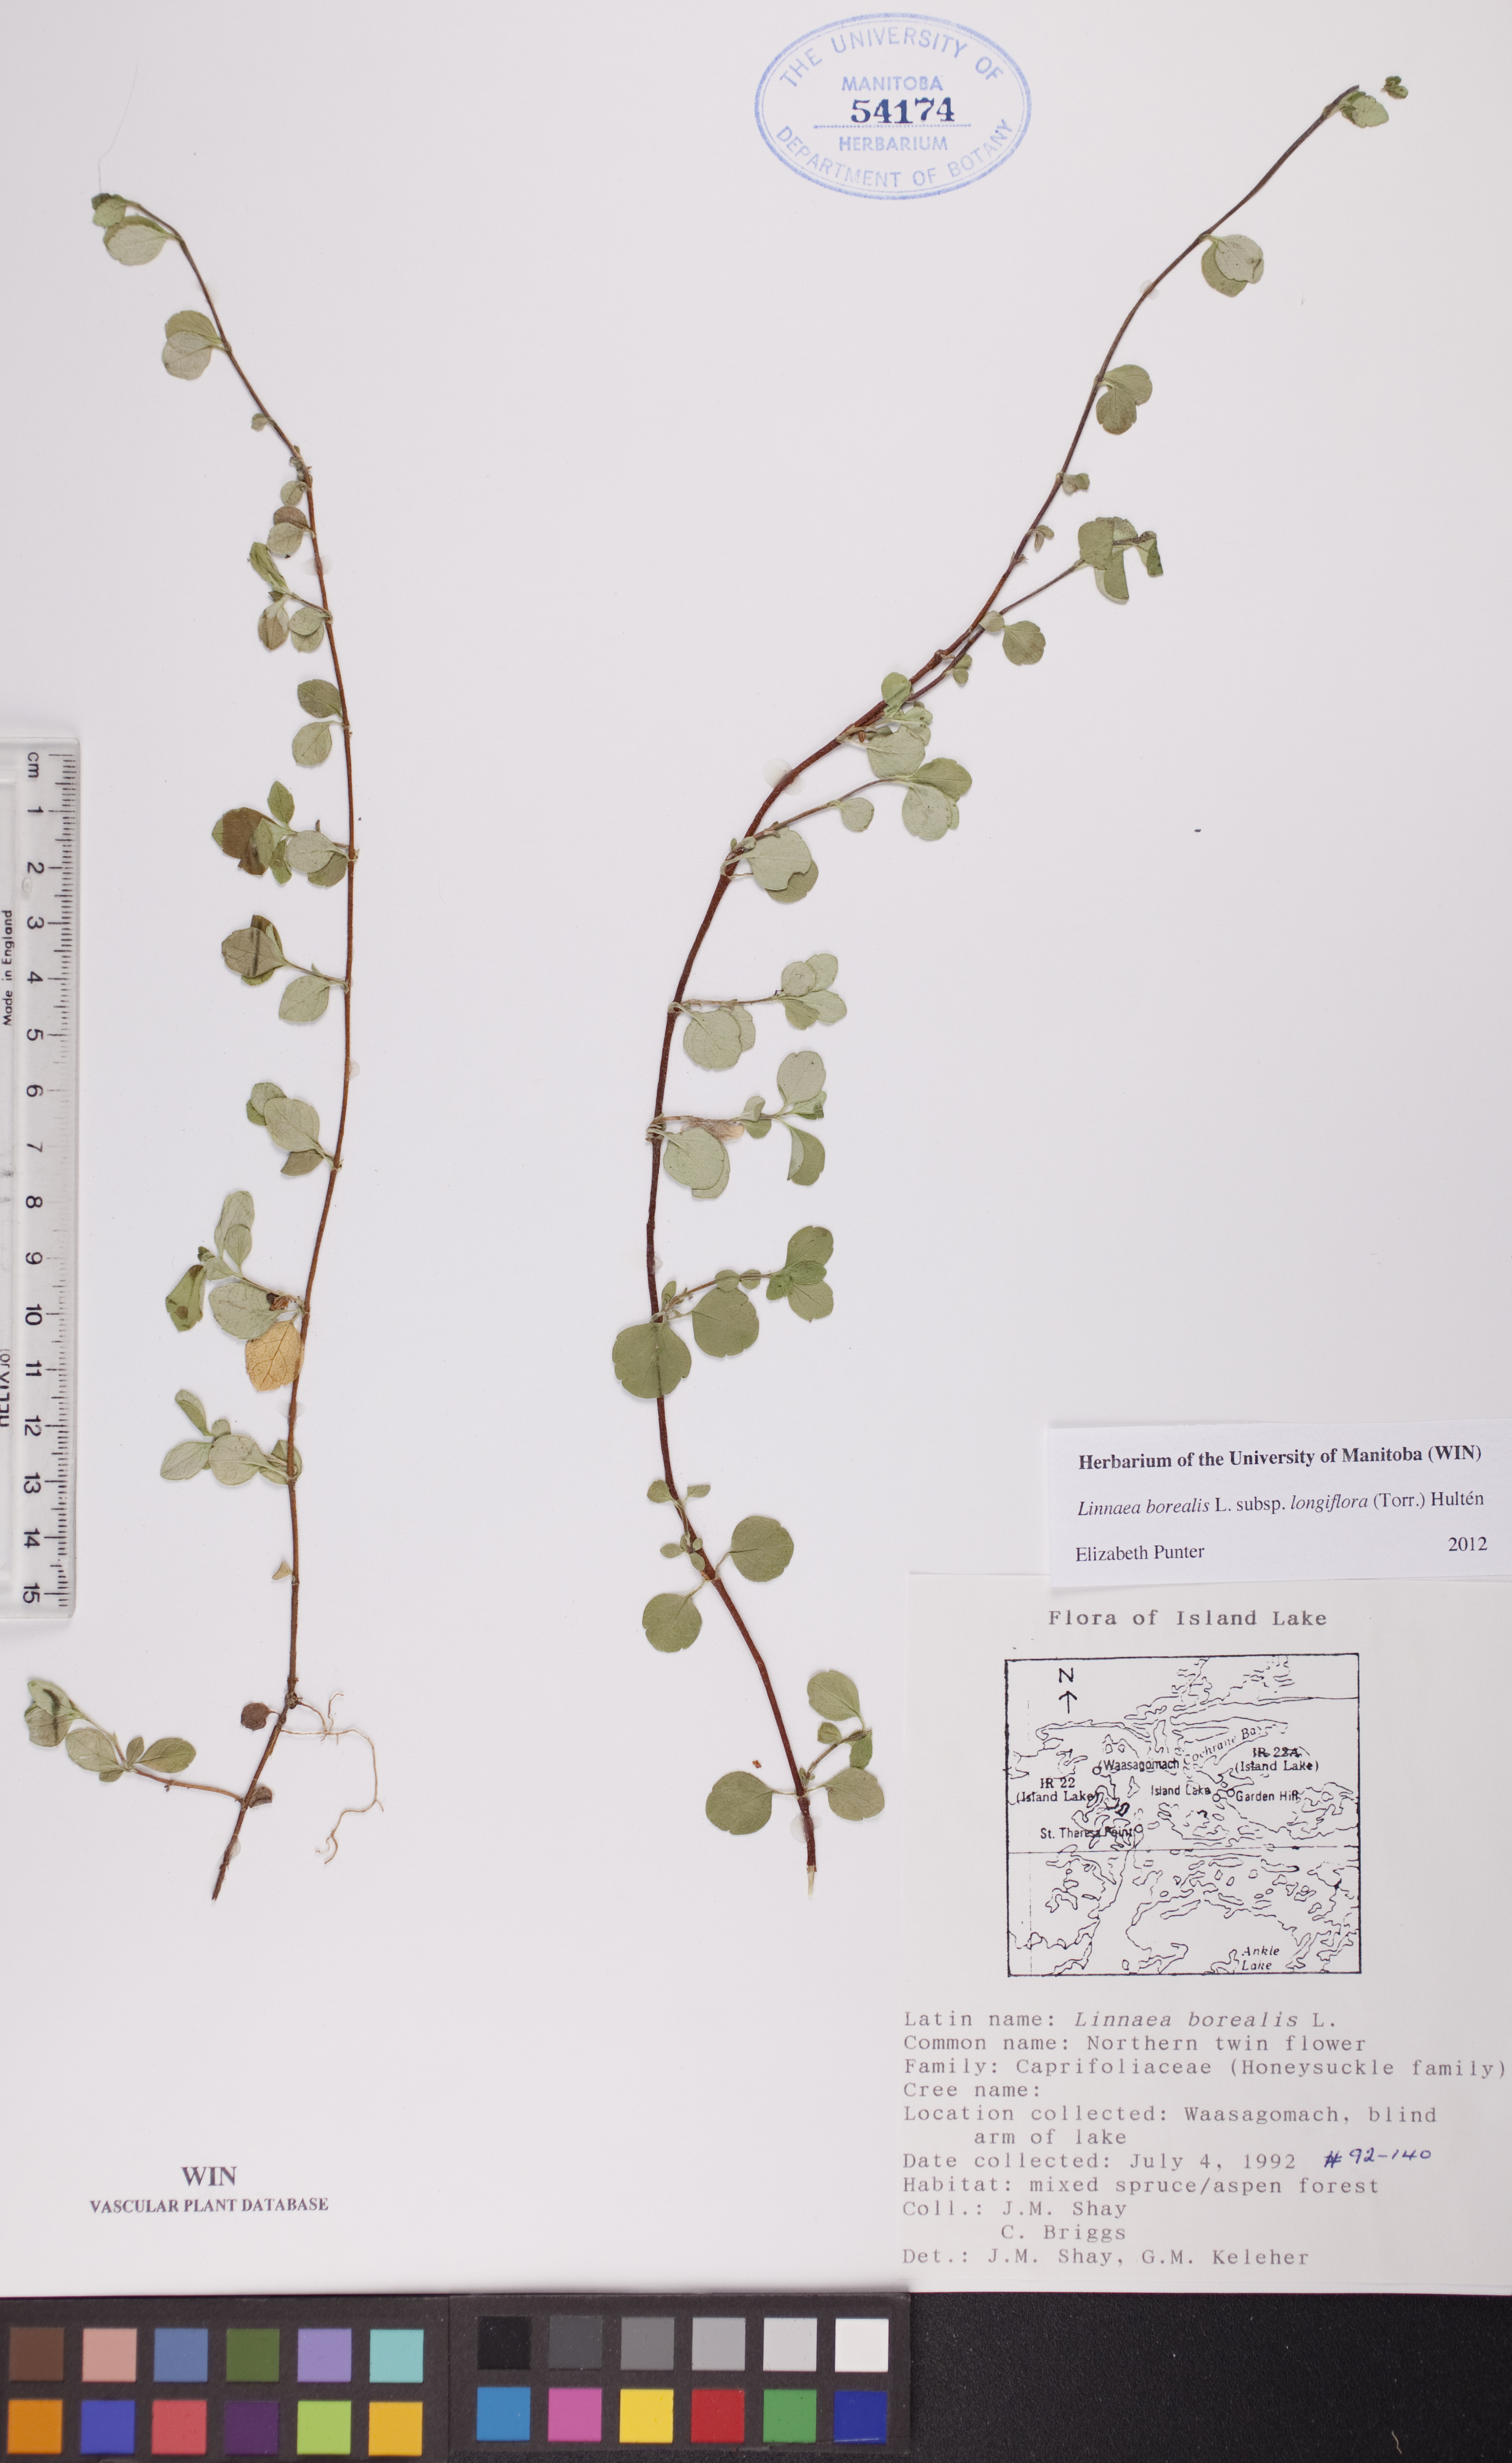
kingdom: Plantae
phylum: Tracheophyta
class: Magnoliopsida
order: Dipsacales
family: Caprifoliaceae
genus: Linnaea
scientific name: Linnaea borealis
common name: Twinflower
